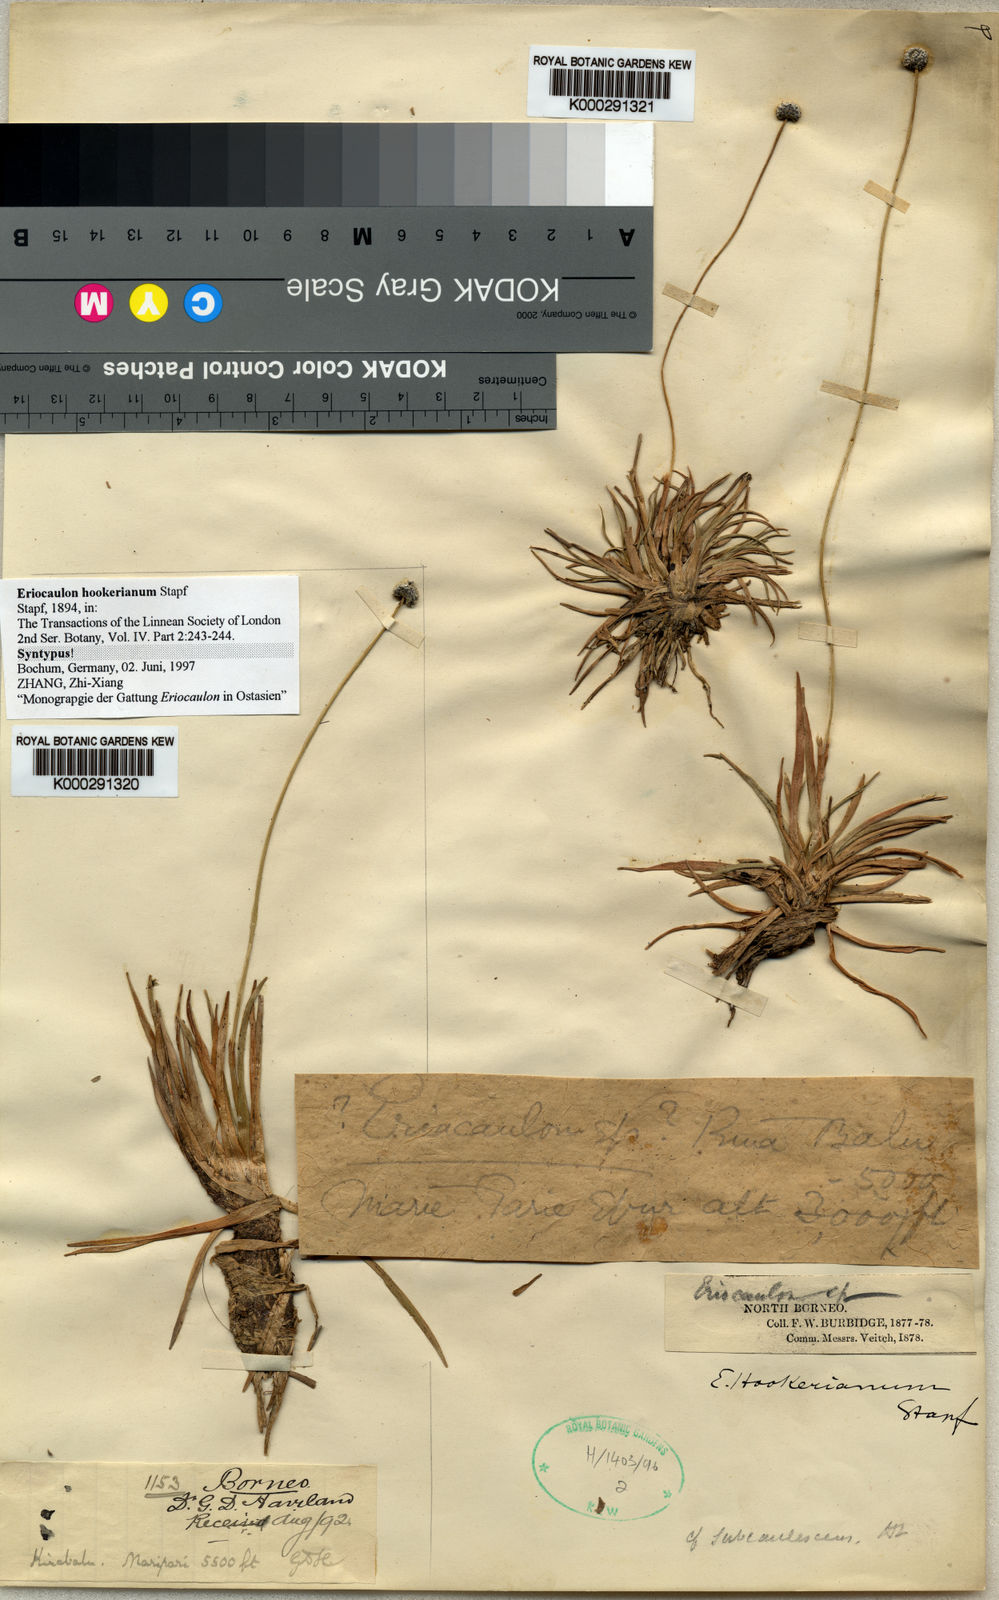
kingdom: Plantae
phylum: Tracheophyta
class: Liliopsida
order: Poales
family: Eriocaulaceae
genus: Eriocaulon
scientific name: Eriocaulon hookerianum
